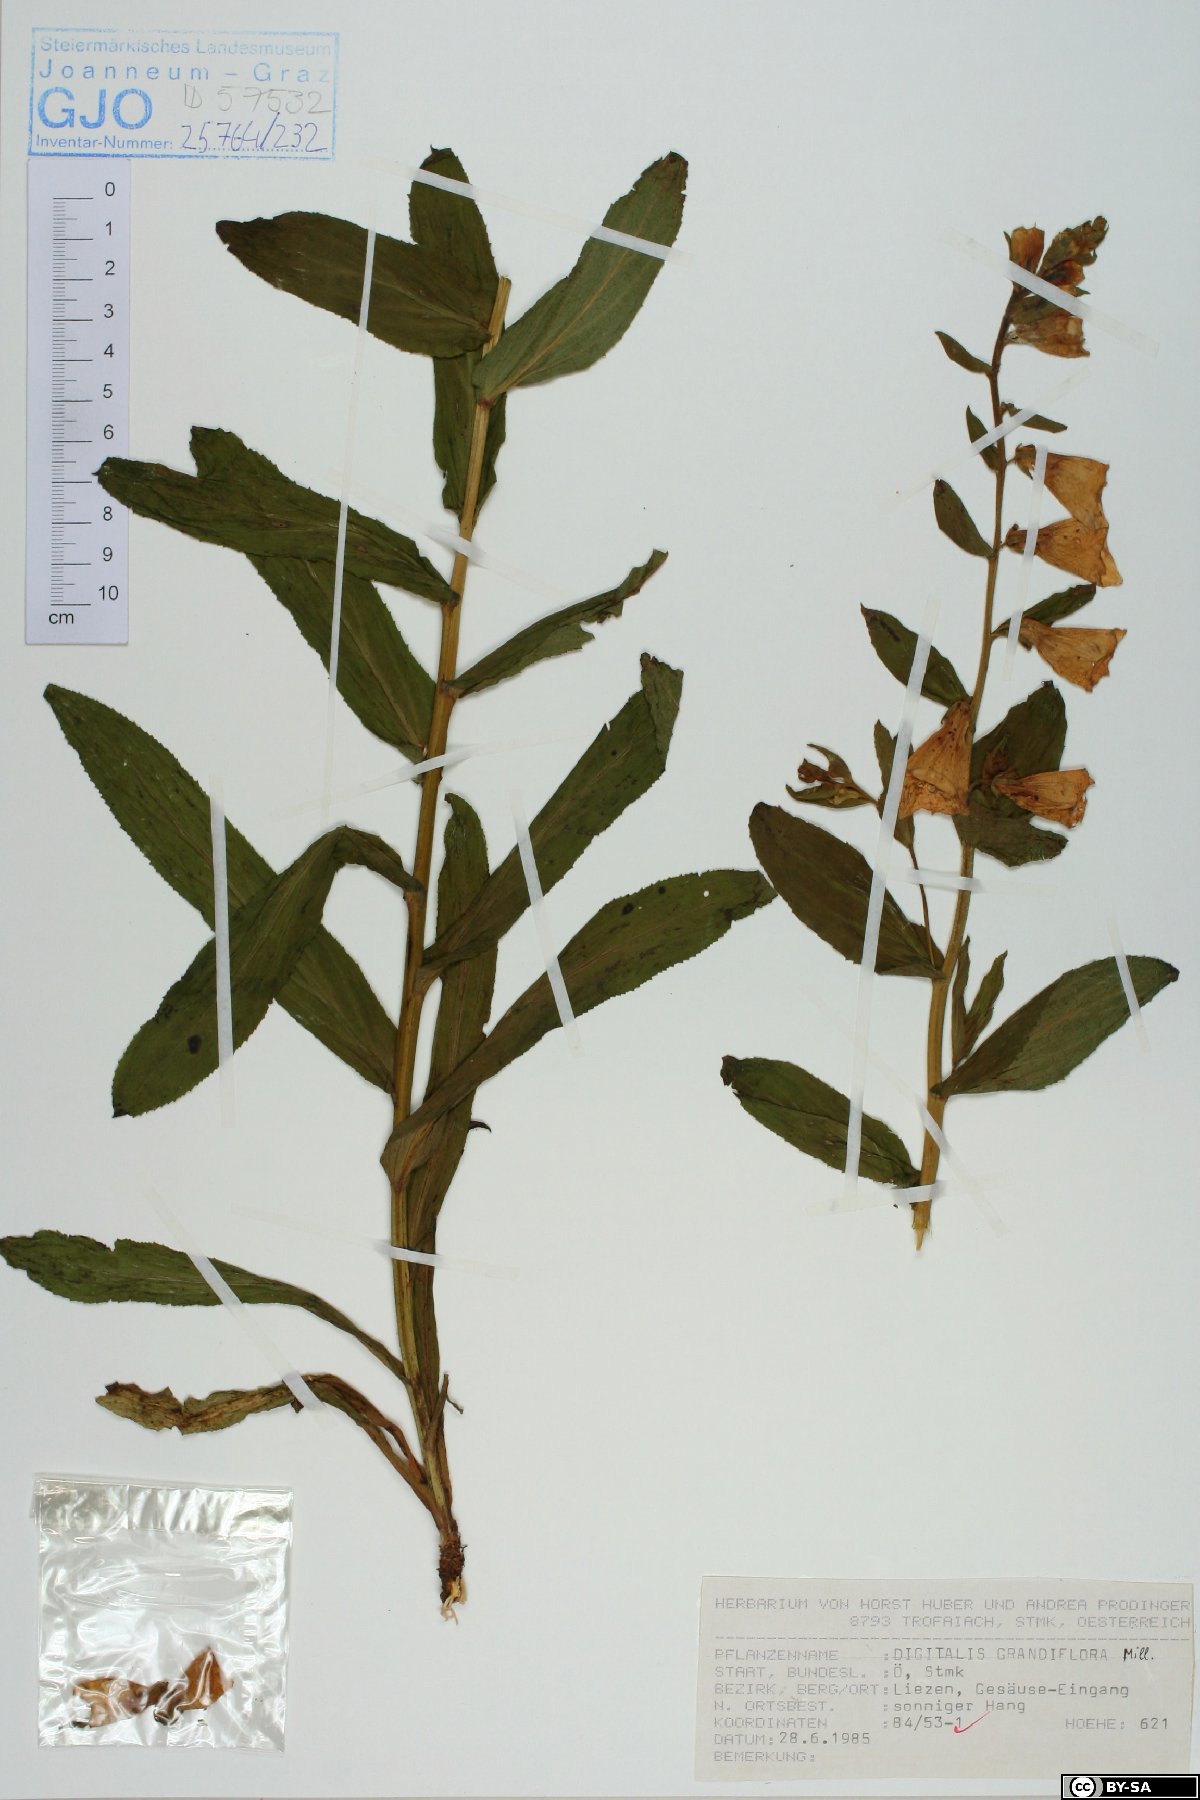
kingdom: Plantae
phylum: Tracheophyta
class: Magnoliopsida
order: Lamiales
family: Plantaginaceae
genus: Digitalis
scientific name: Digitalis grandiflora
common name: Yellow foxglove
